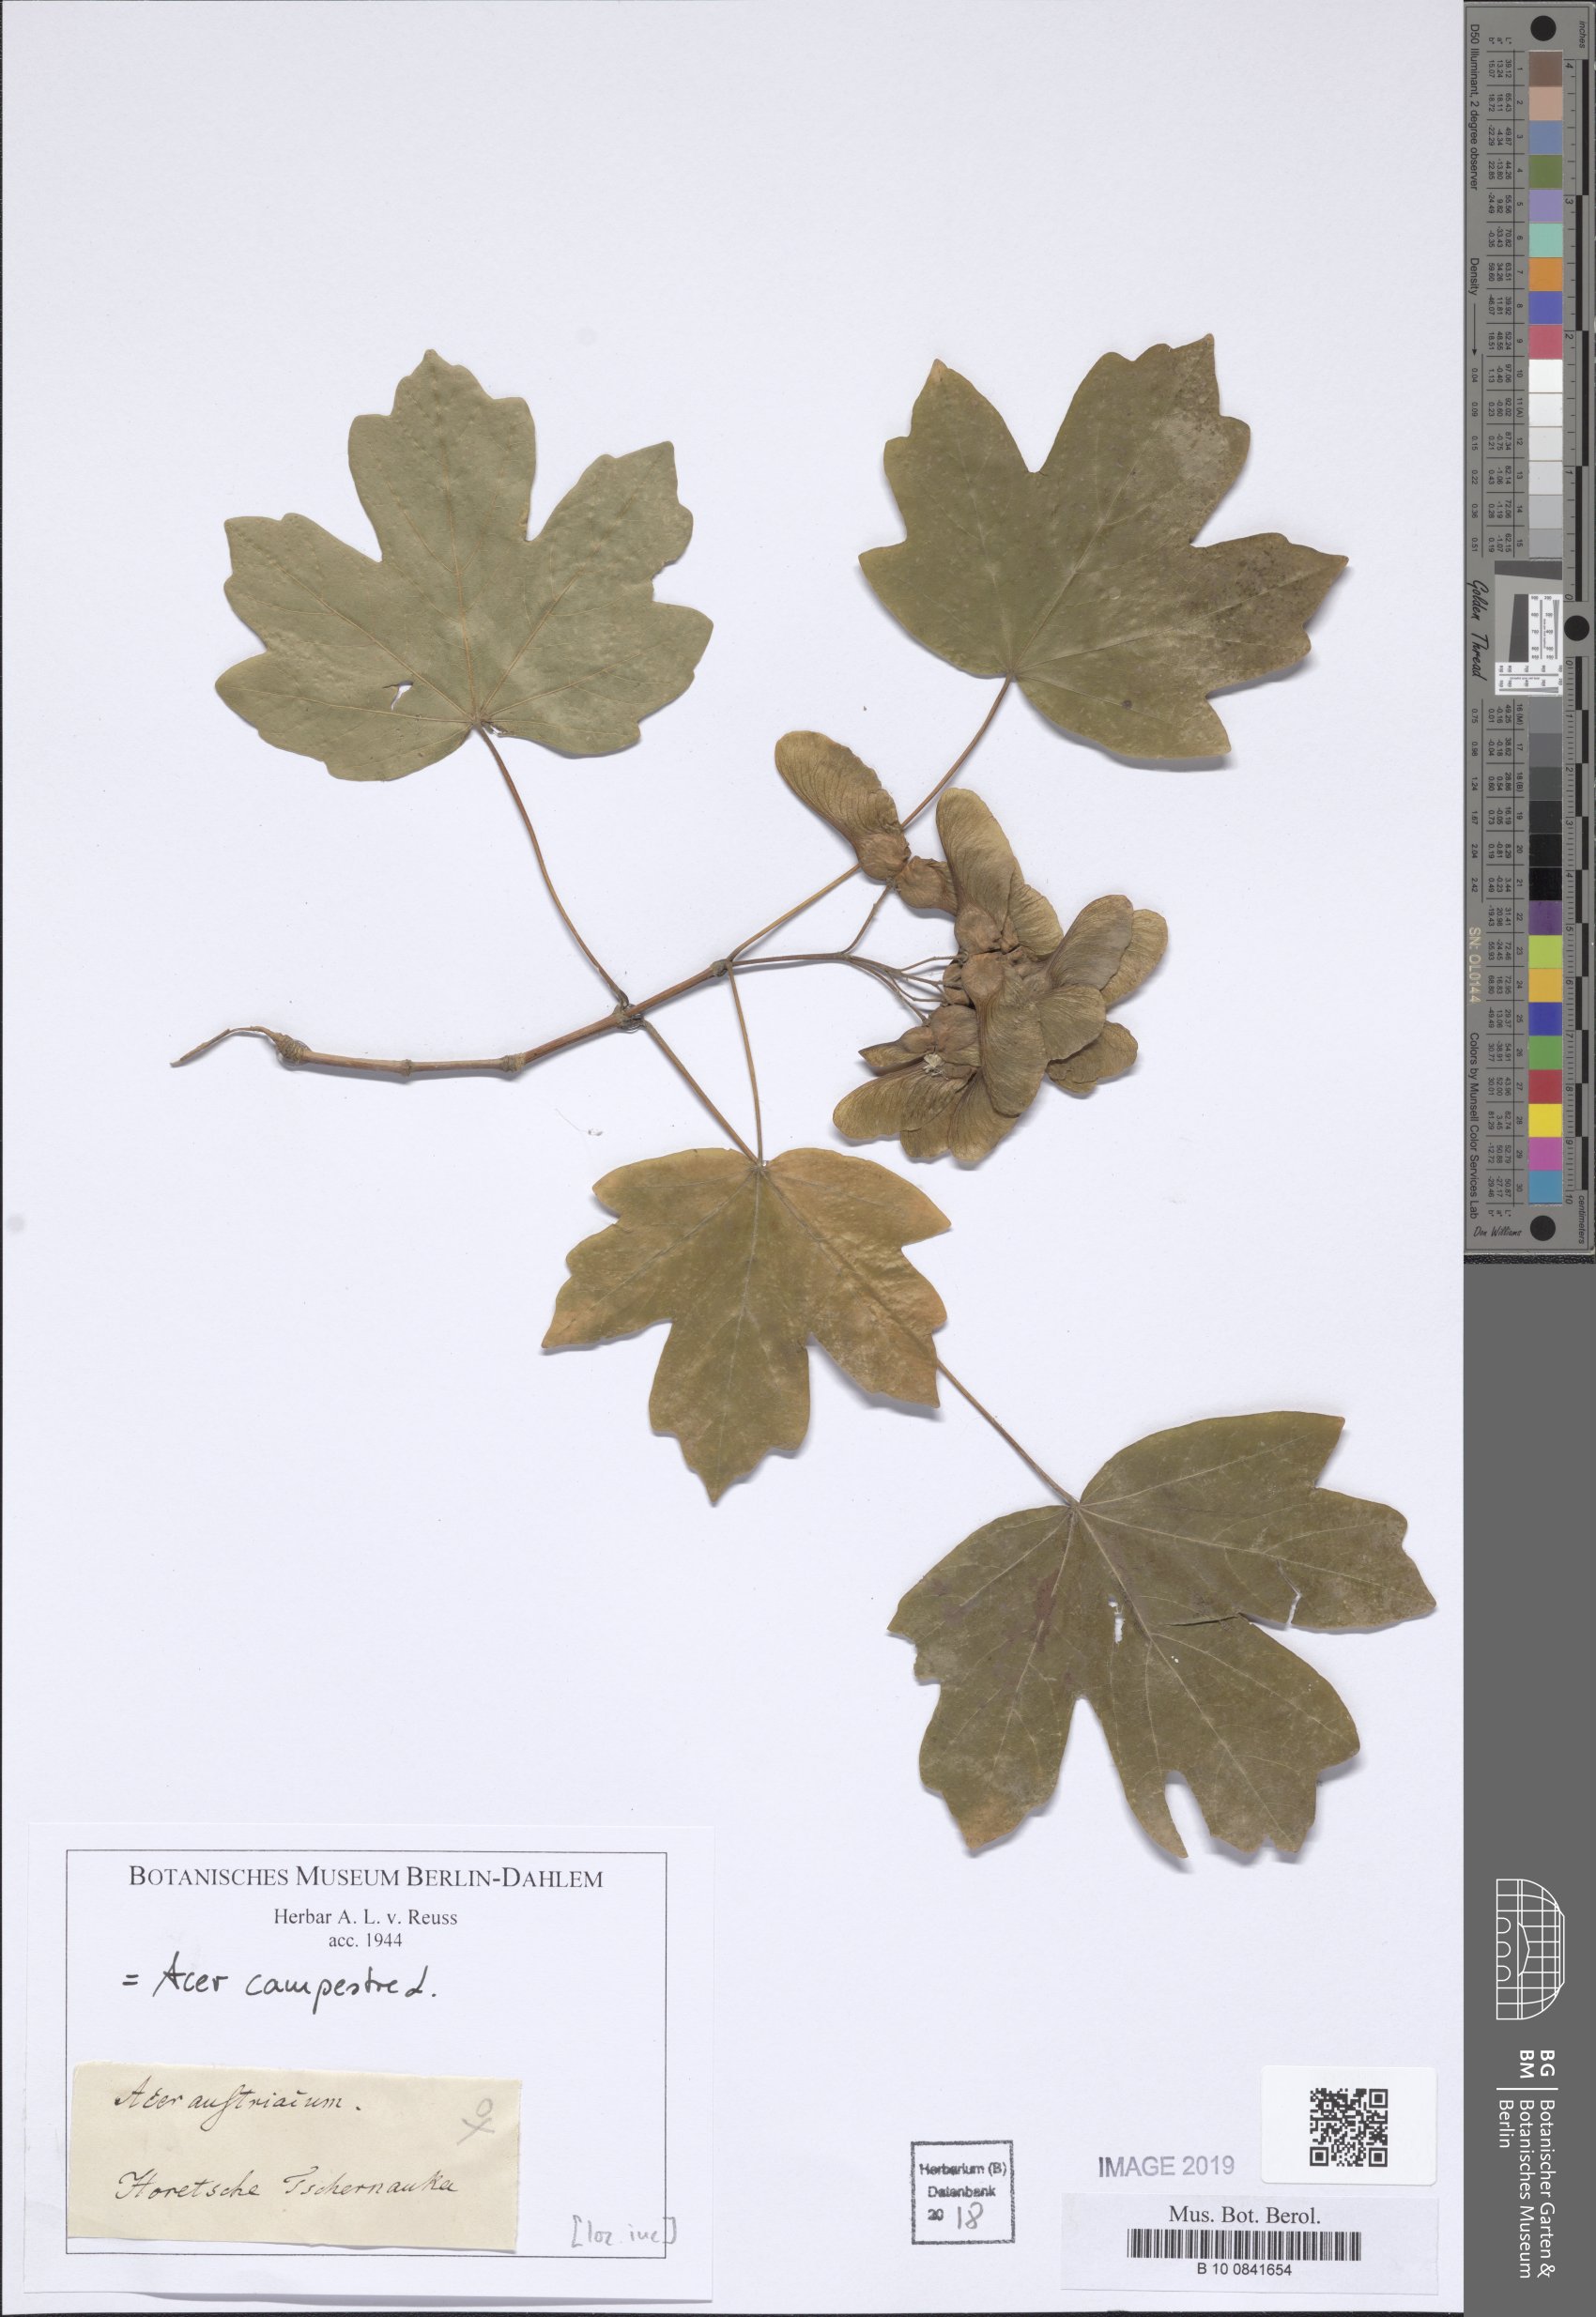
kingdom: Plantae
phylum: Tracheophyta
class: Magnoliopsida
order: Sapindales
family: Sapindaceae
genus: Acer
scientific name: Acer campestre
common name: Field maple
